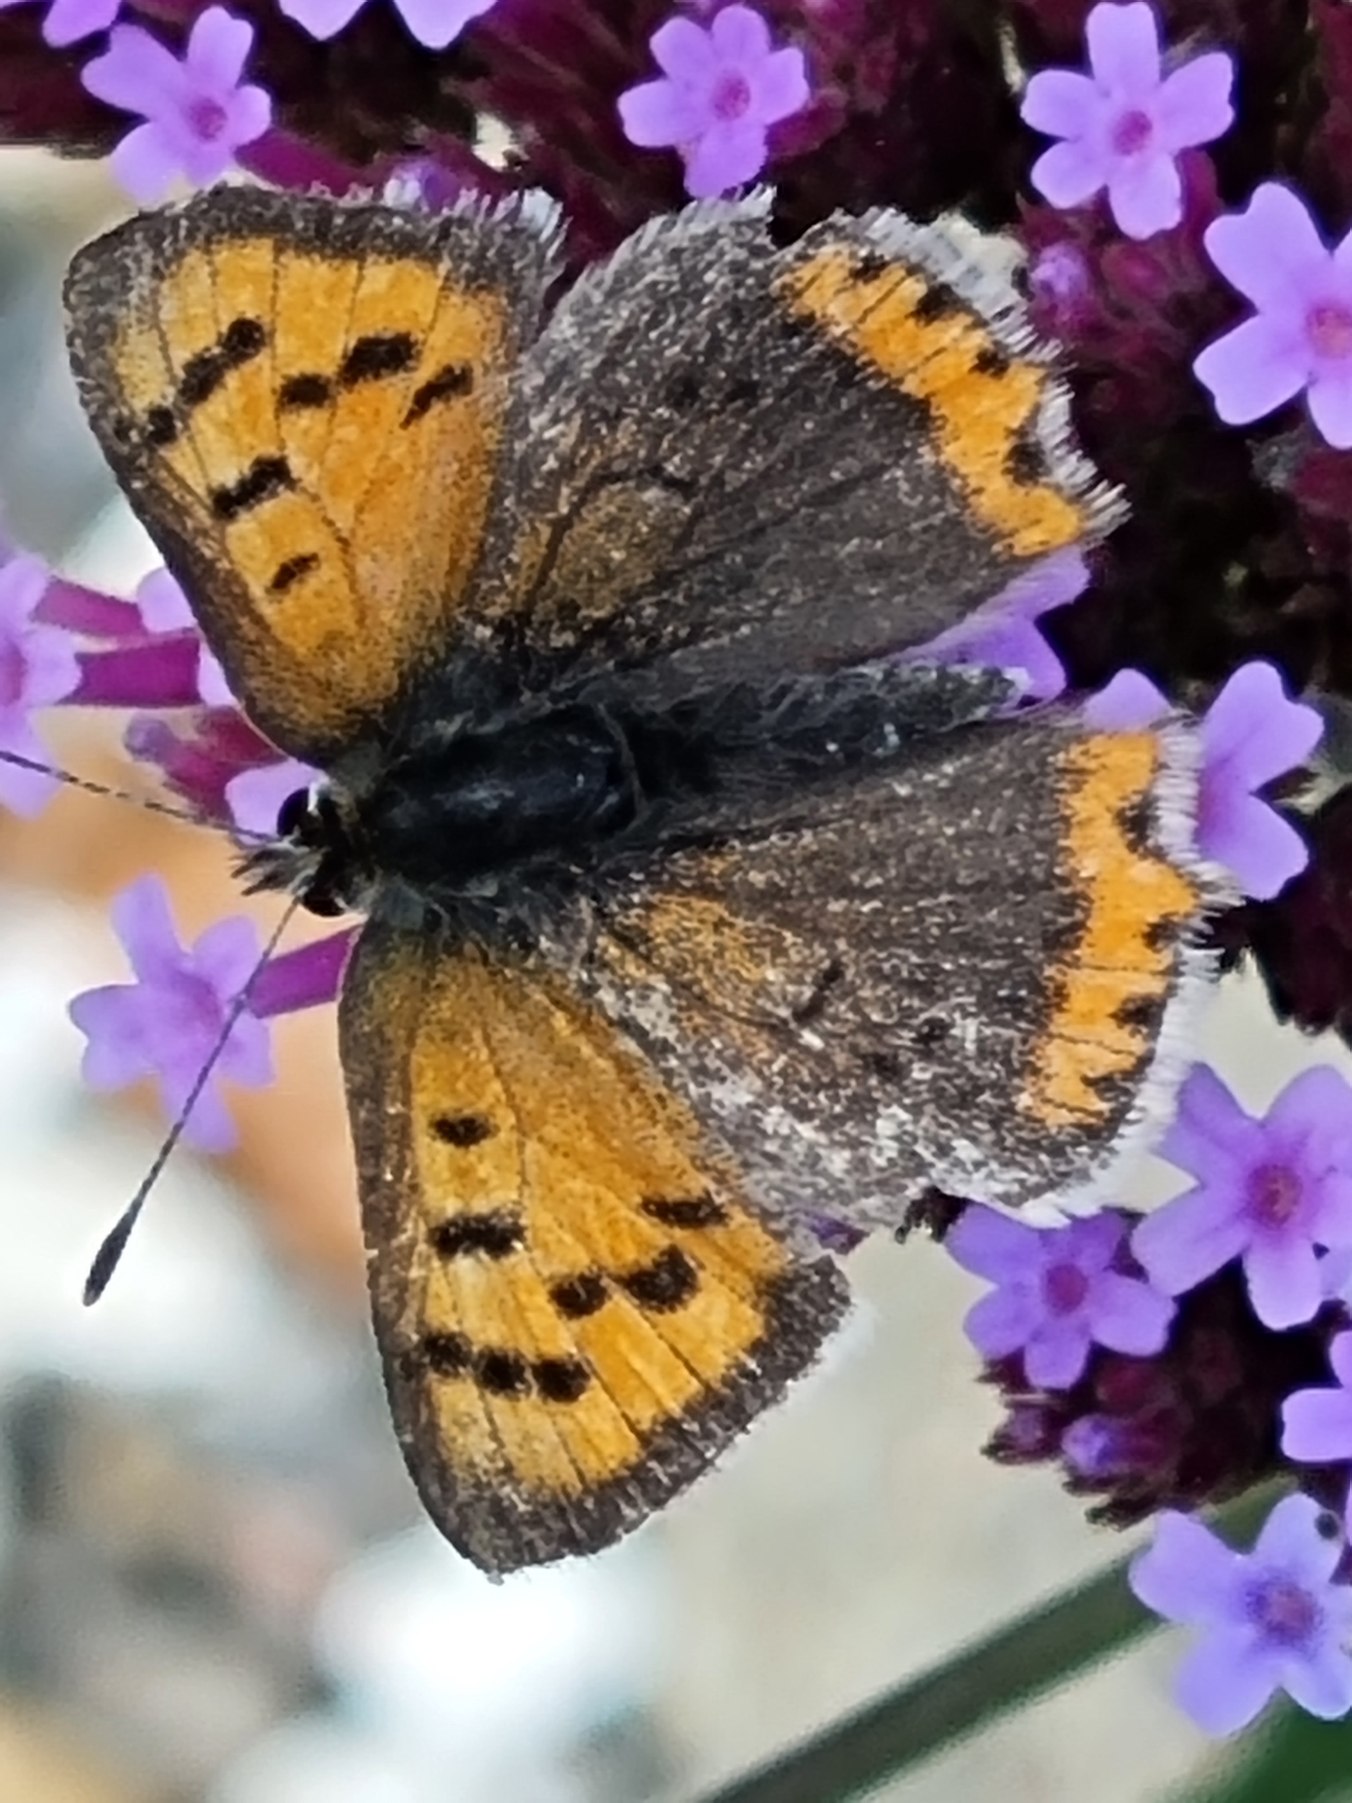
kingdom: Animalia
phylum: Arthropoda
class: Insecta
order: Lepidoptera
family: Lycaenidae
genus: Lycaena
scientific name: Lycaena phlaeas
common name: Lille ildfugl
